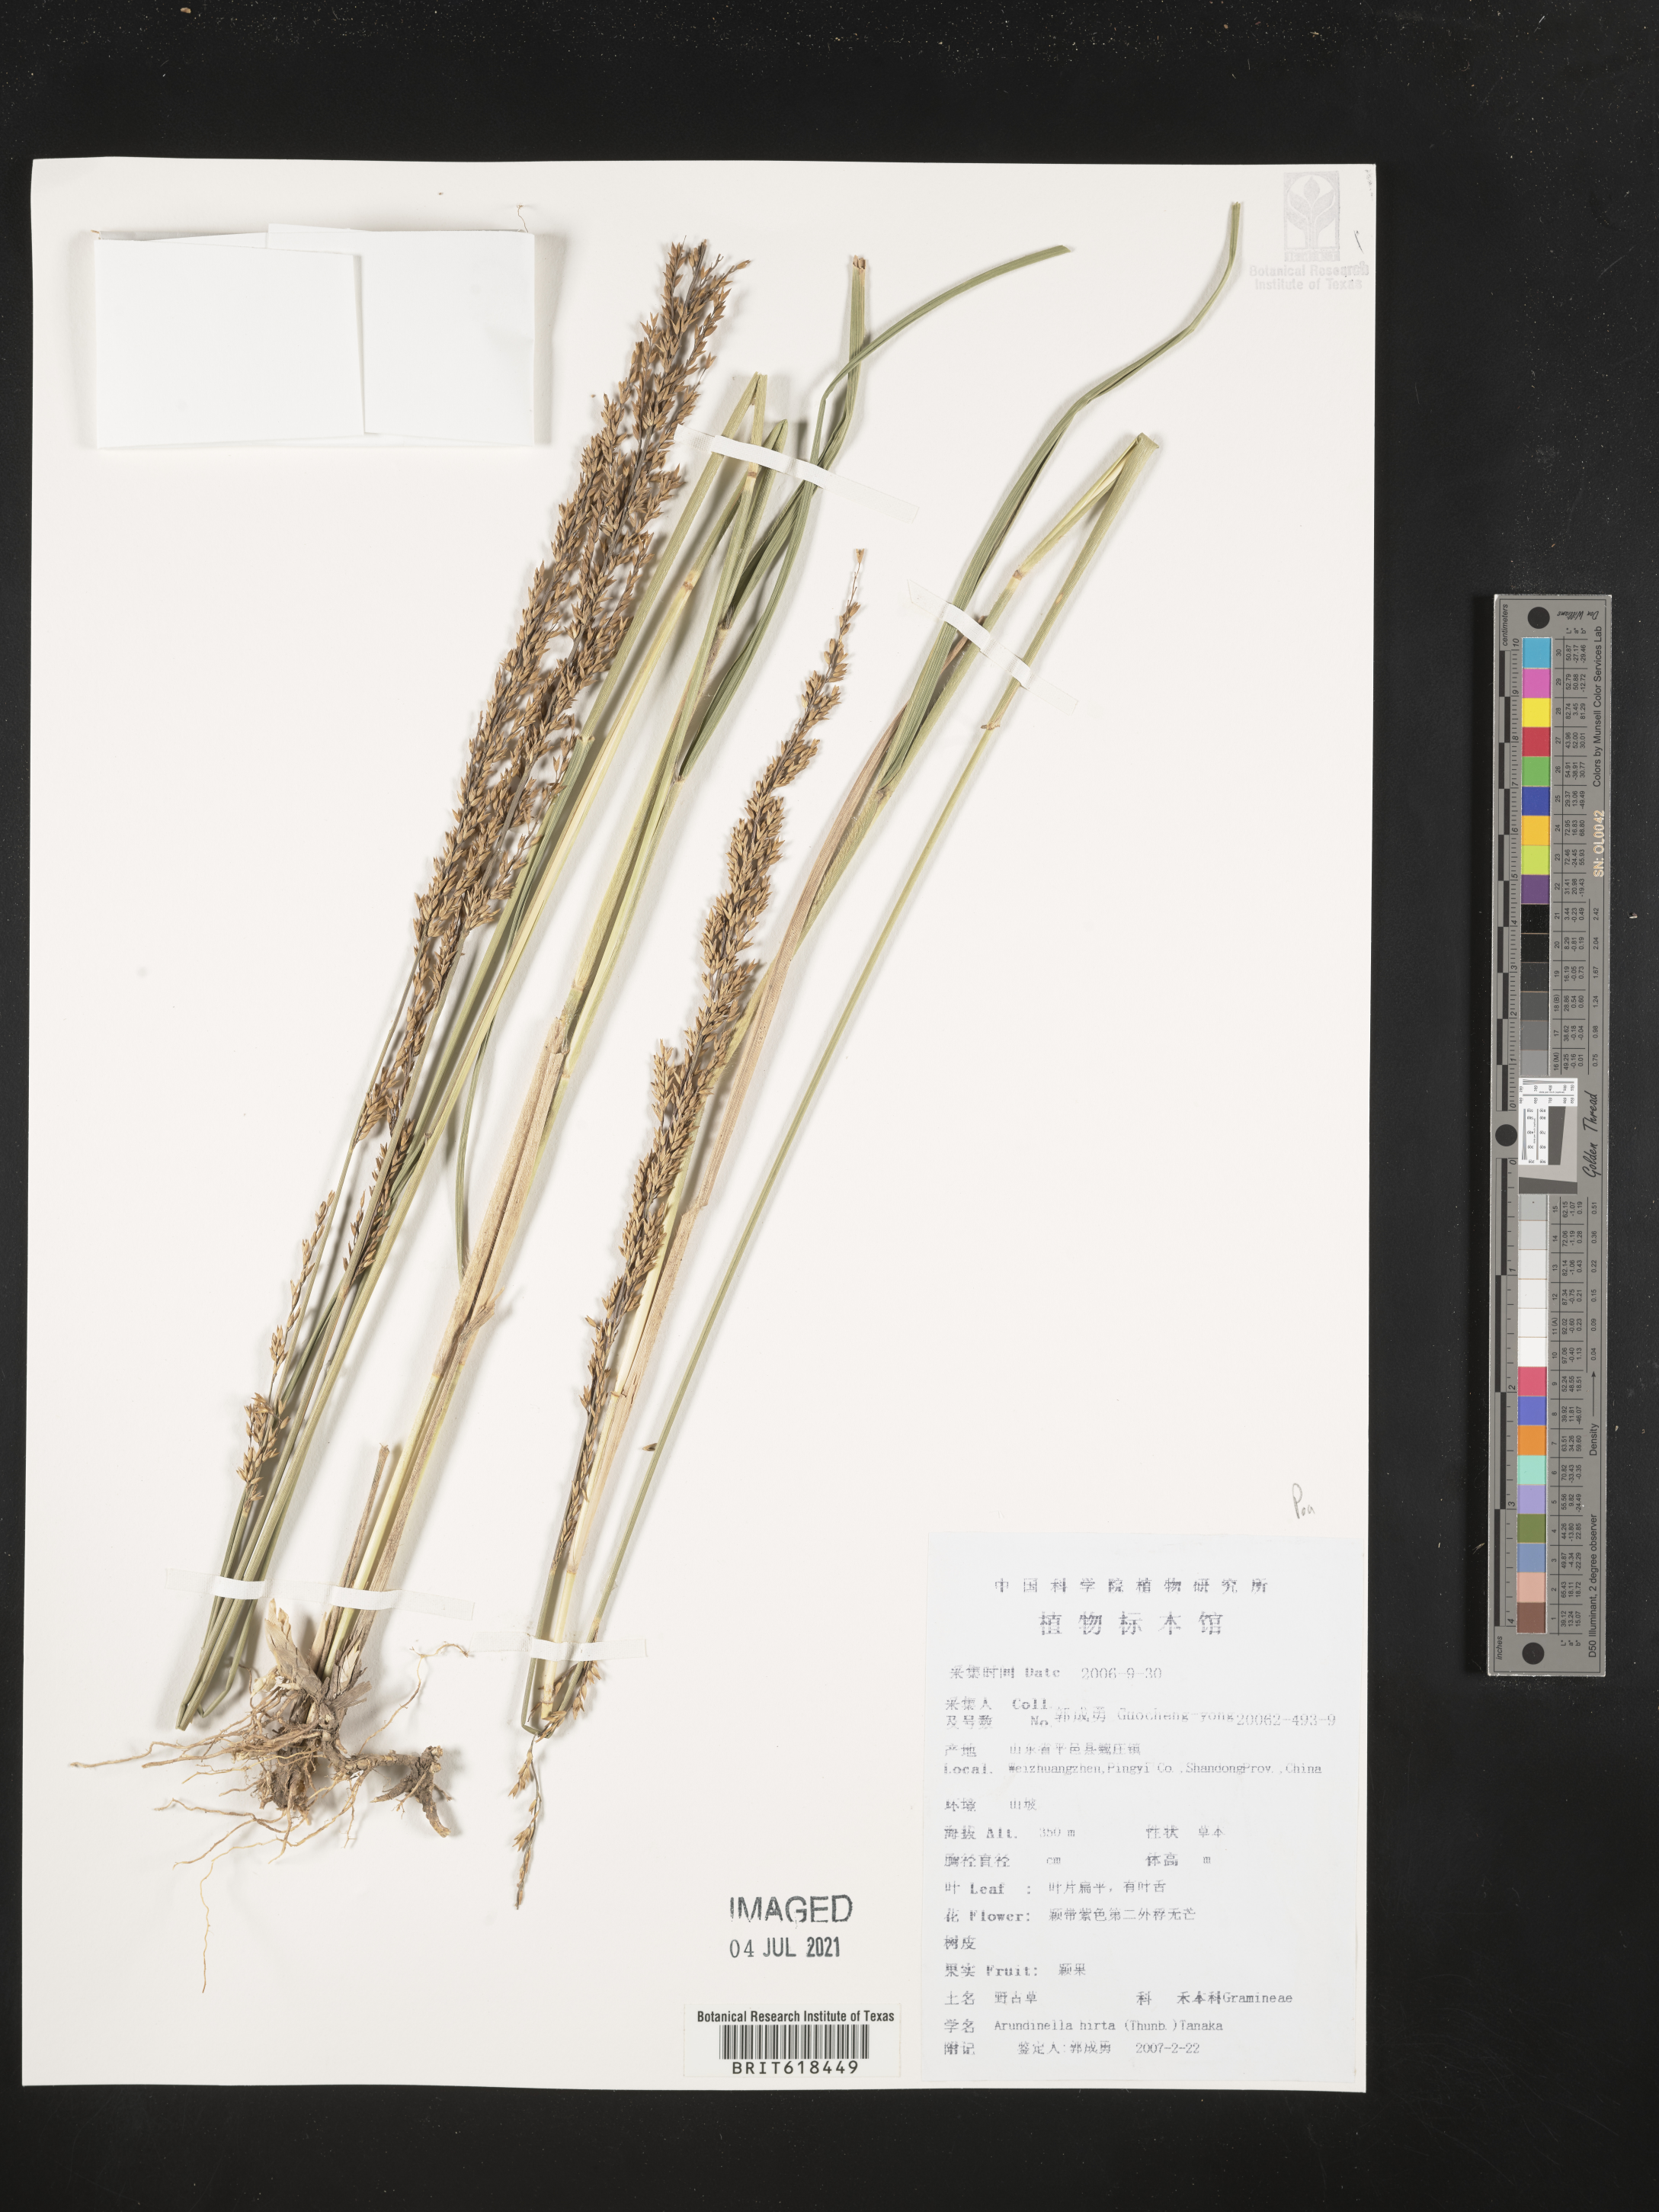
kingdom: Plantae
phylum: Tracheophyta
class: Liliopsida
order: Poales
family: Poaceae
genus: Arundinella
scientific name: Arundinella hirta
